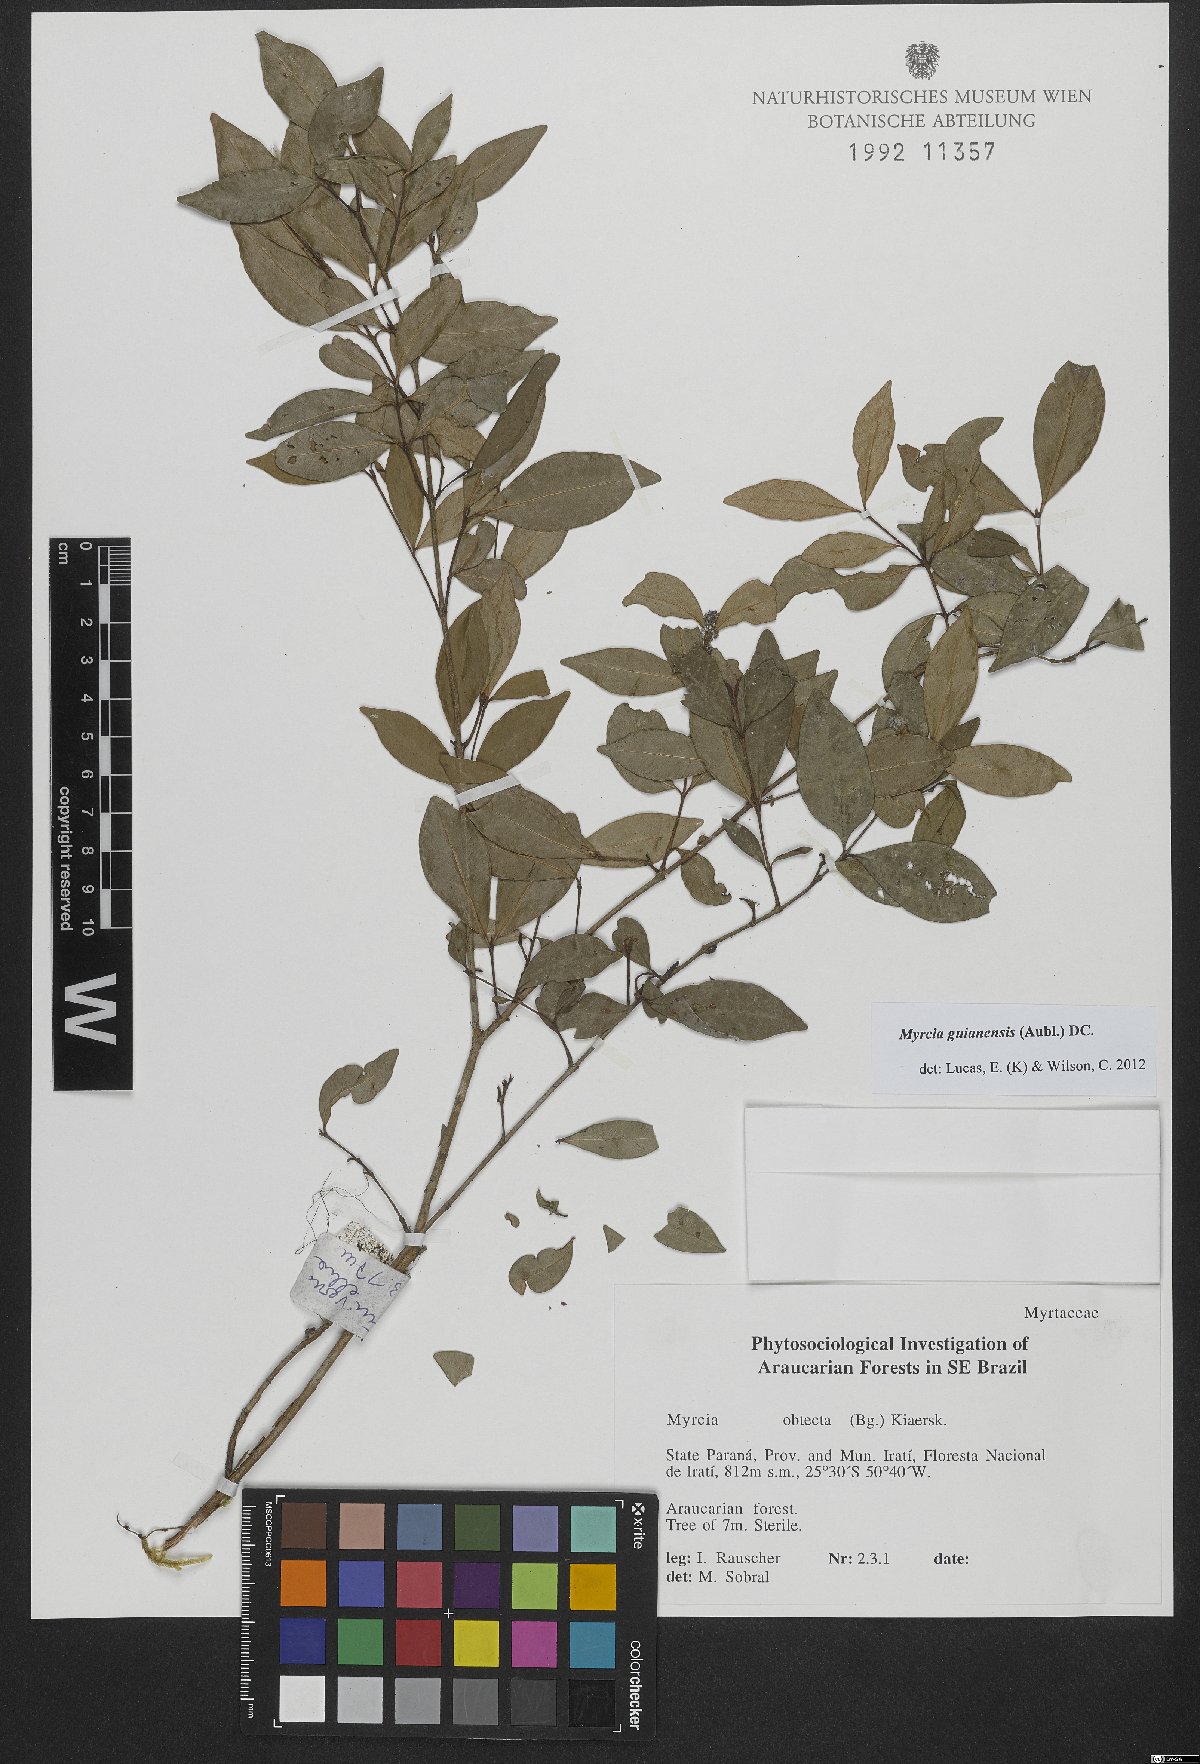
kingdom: Plantae
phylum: Tracheophyta
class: Magnoliopsida
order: Myrtales
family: Myrtaceae
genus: Myrcia
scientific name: Myrcia guianensis
